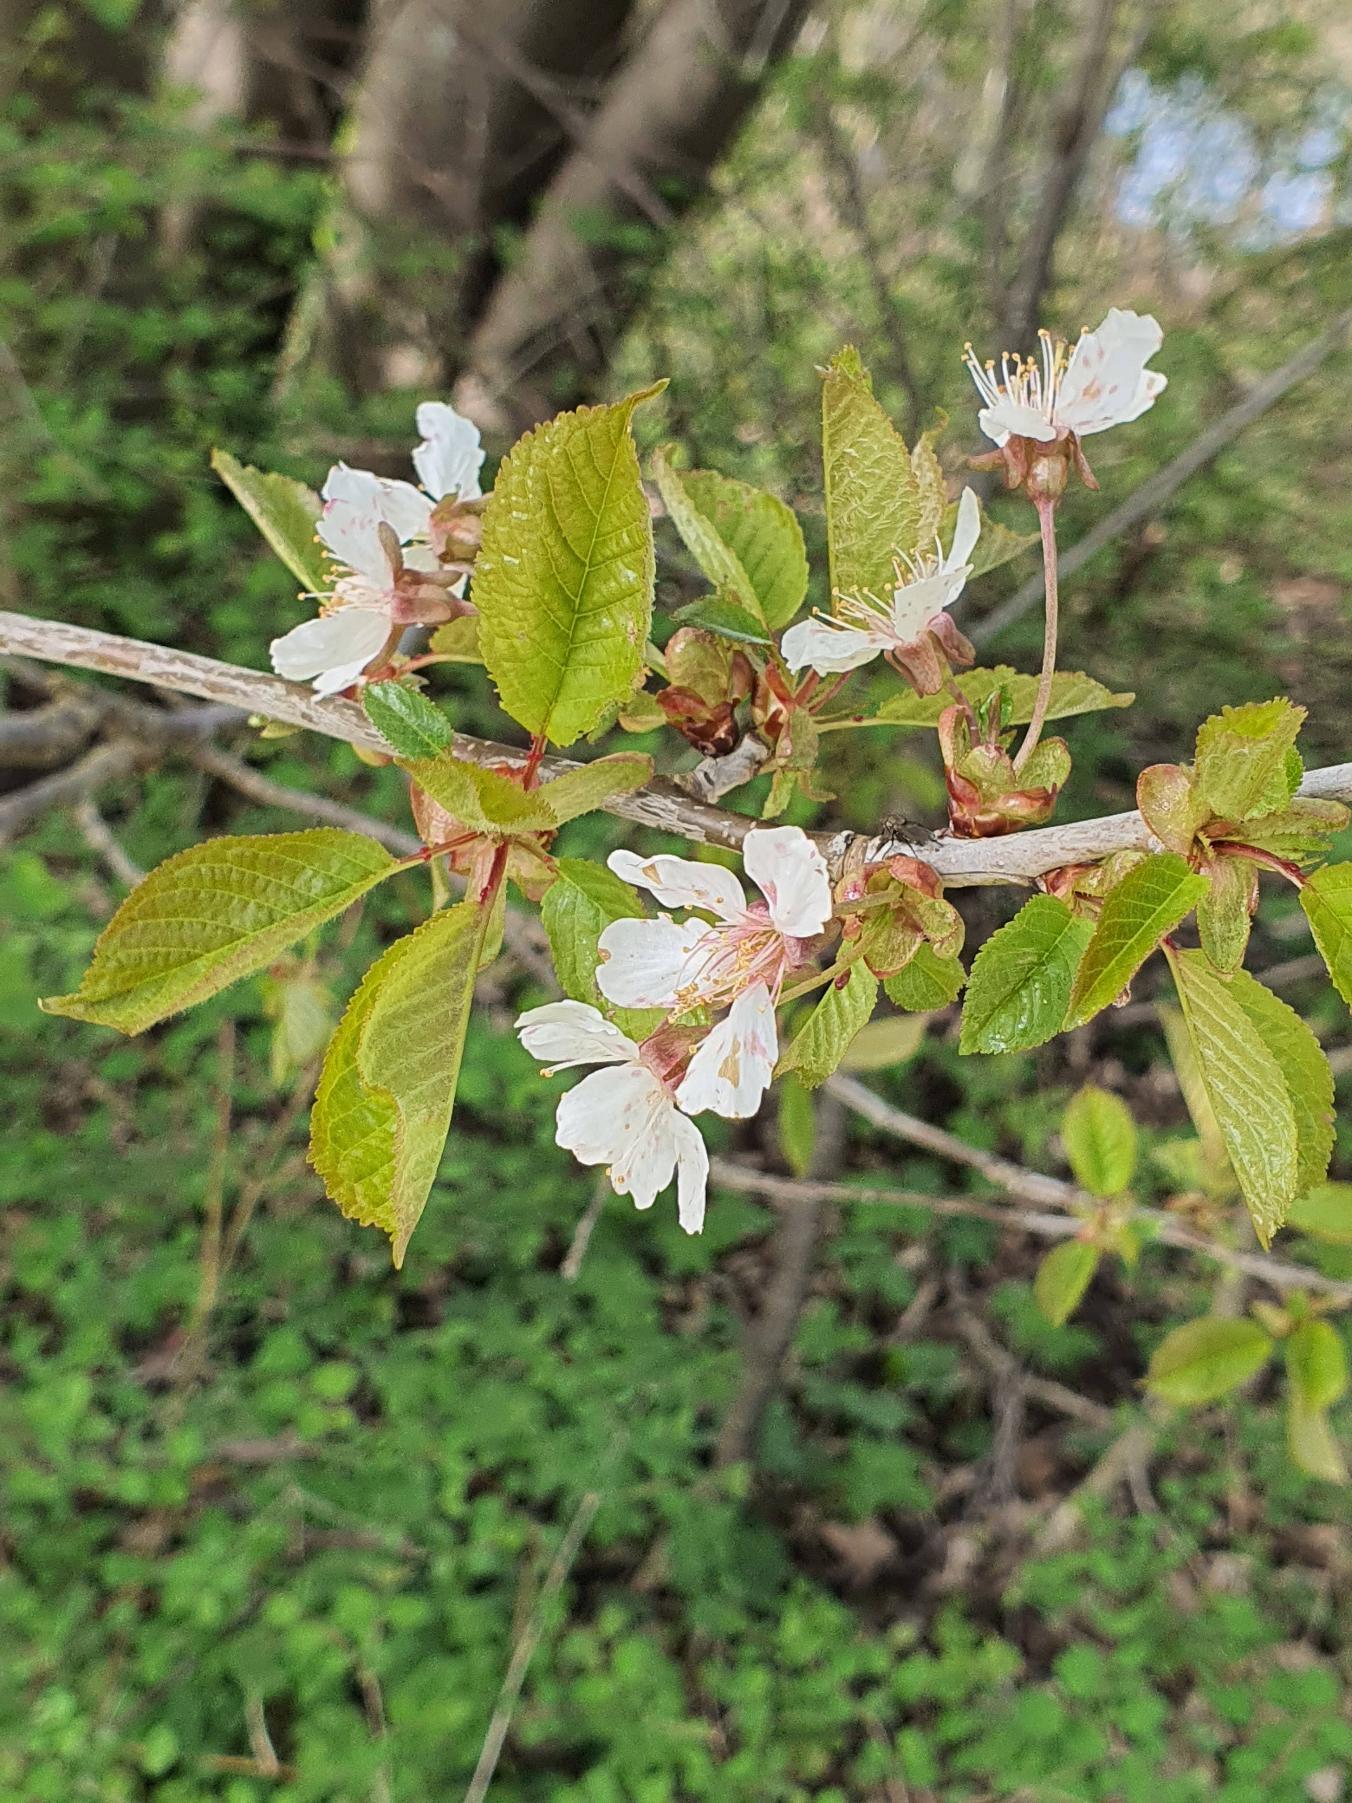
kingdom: Plantae
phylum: Tracheophyta
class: Magnoliopsida
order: Rosales
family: Rosaceae
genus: Prunus
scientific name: Prunus avium
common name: Fugle-kirsebær
